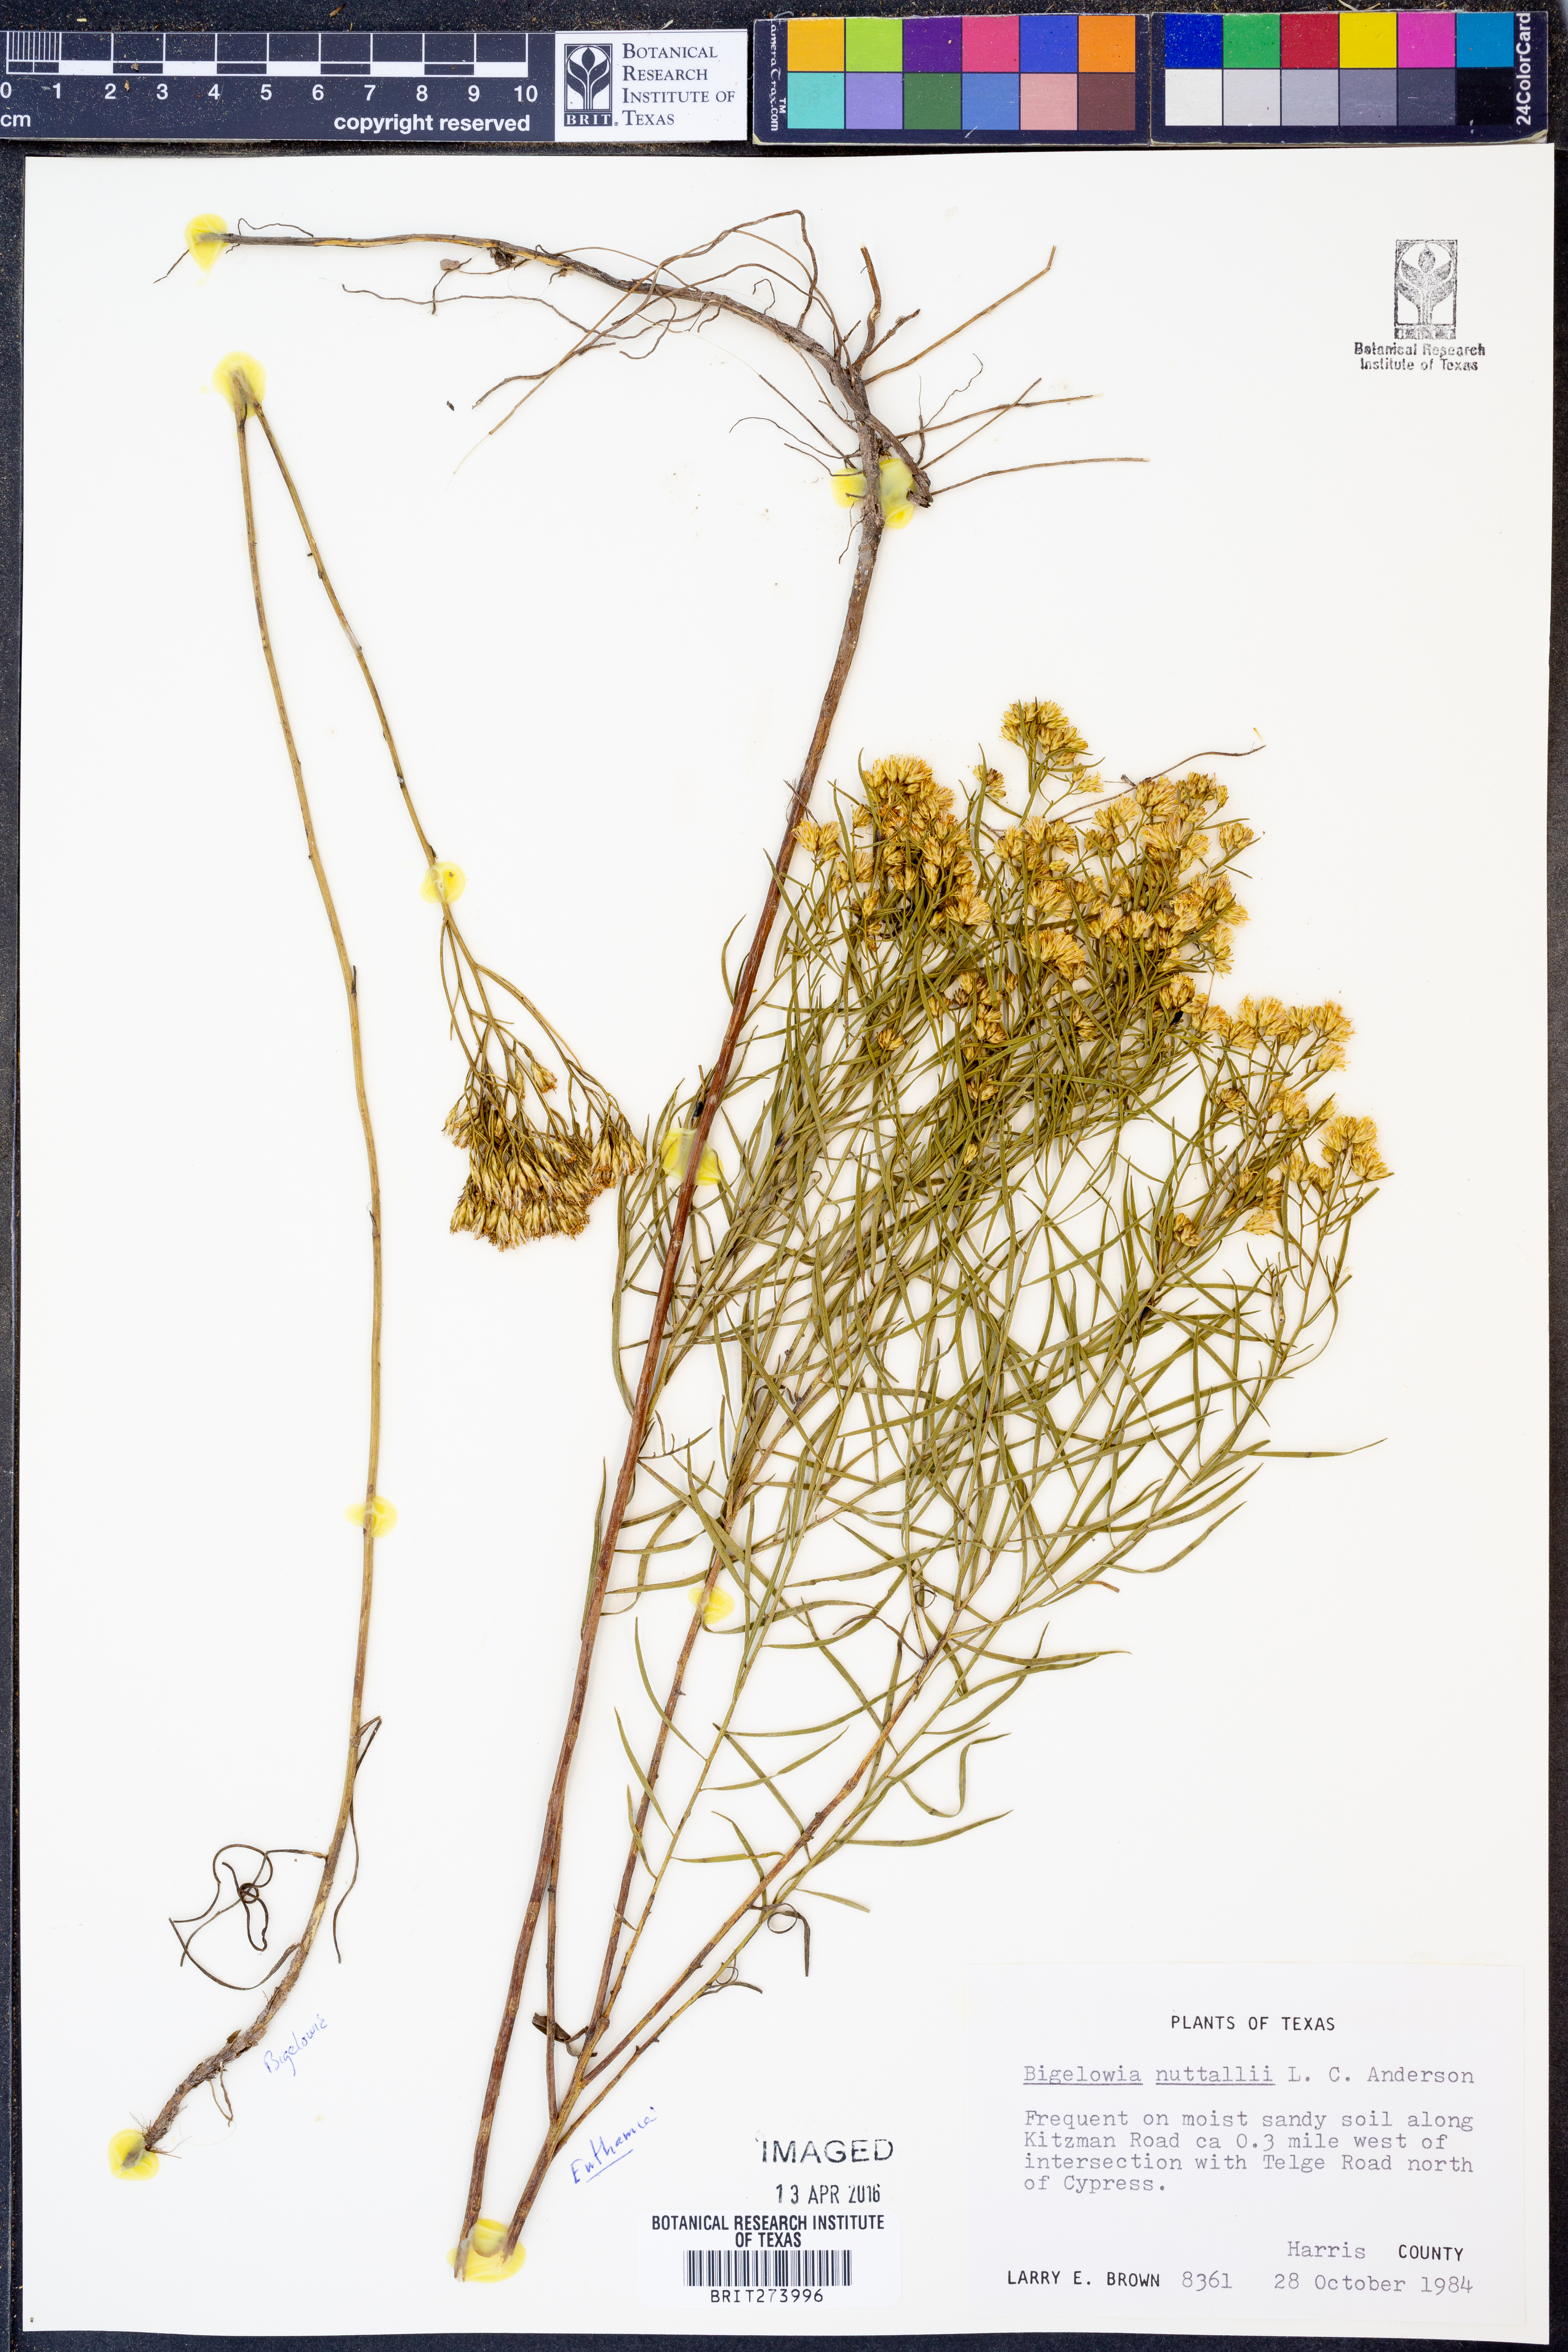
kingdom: Plantae
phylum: Tracheophyta
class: Magnoliopsida
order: Asterales
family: Asteraceae
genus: Bigelowia
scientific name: Bigelowia nuttallii
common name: Nuttall's rayless-goldenrod
